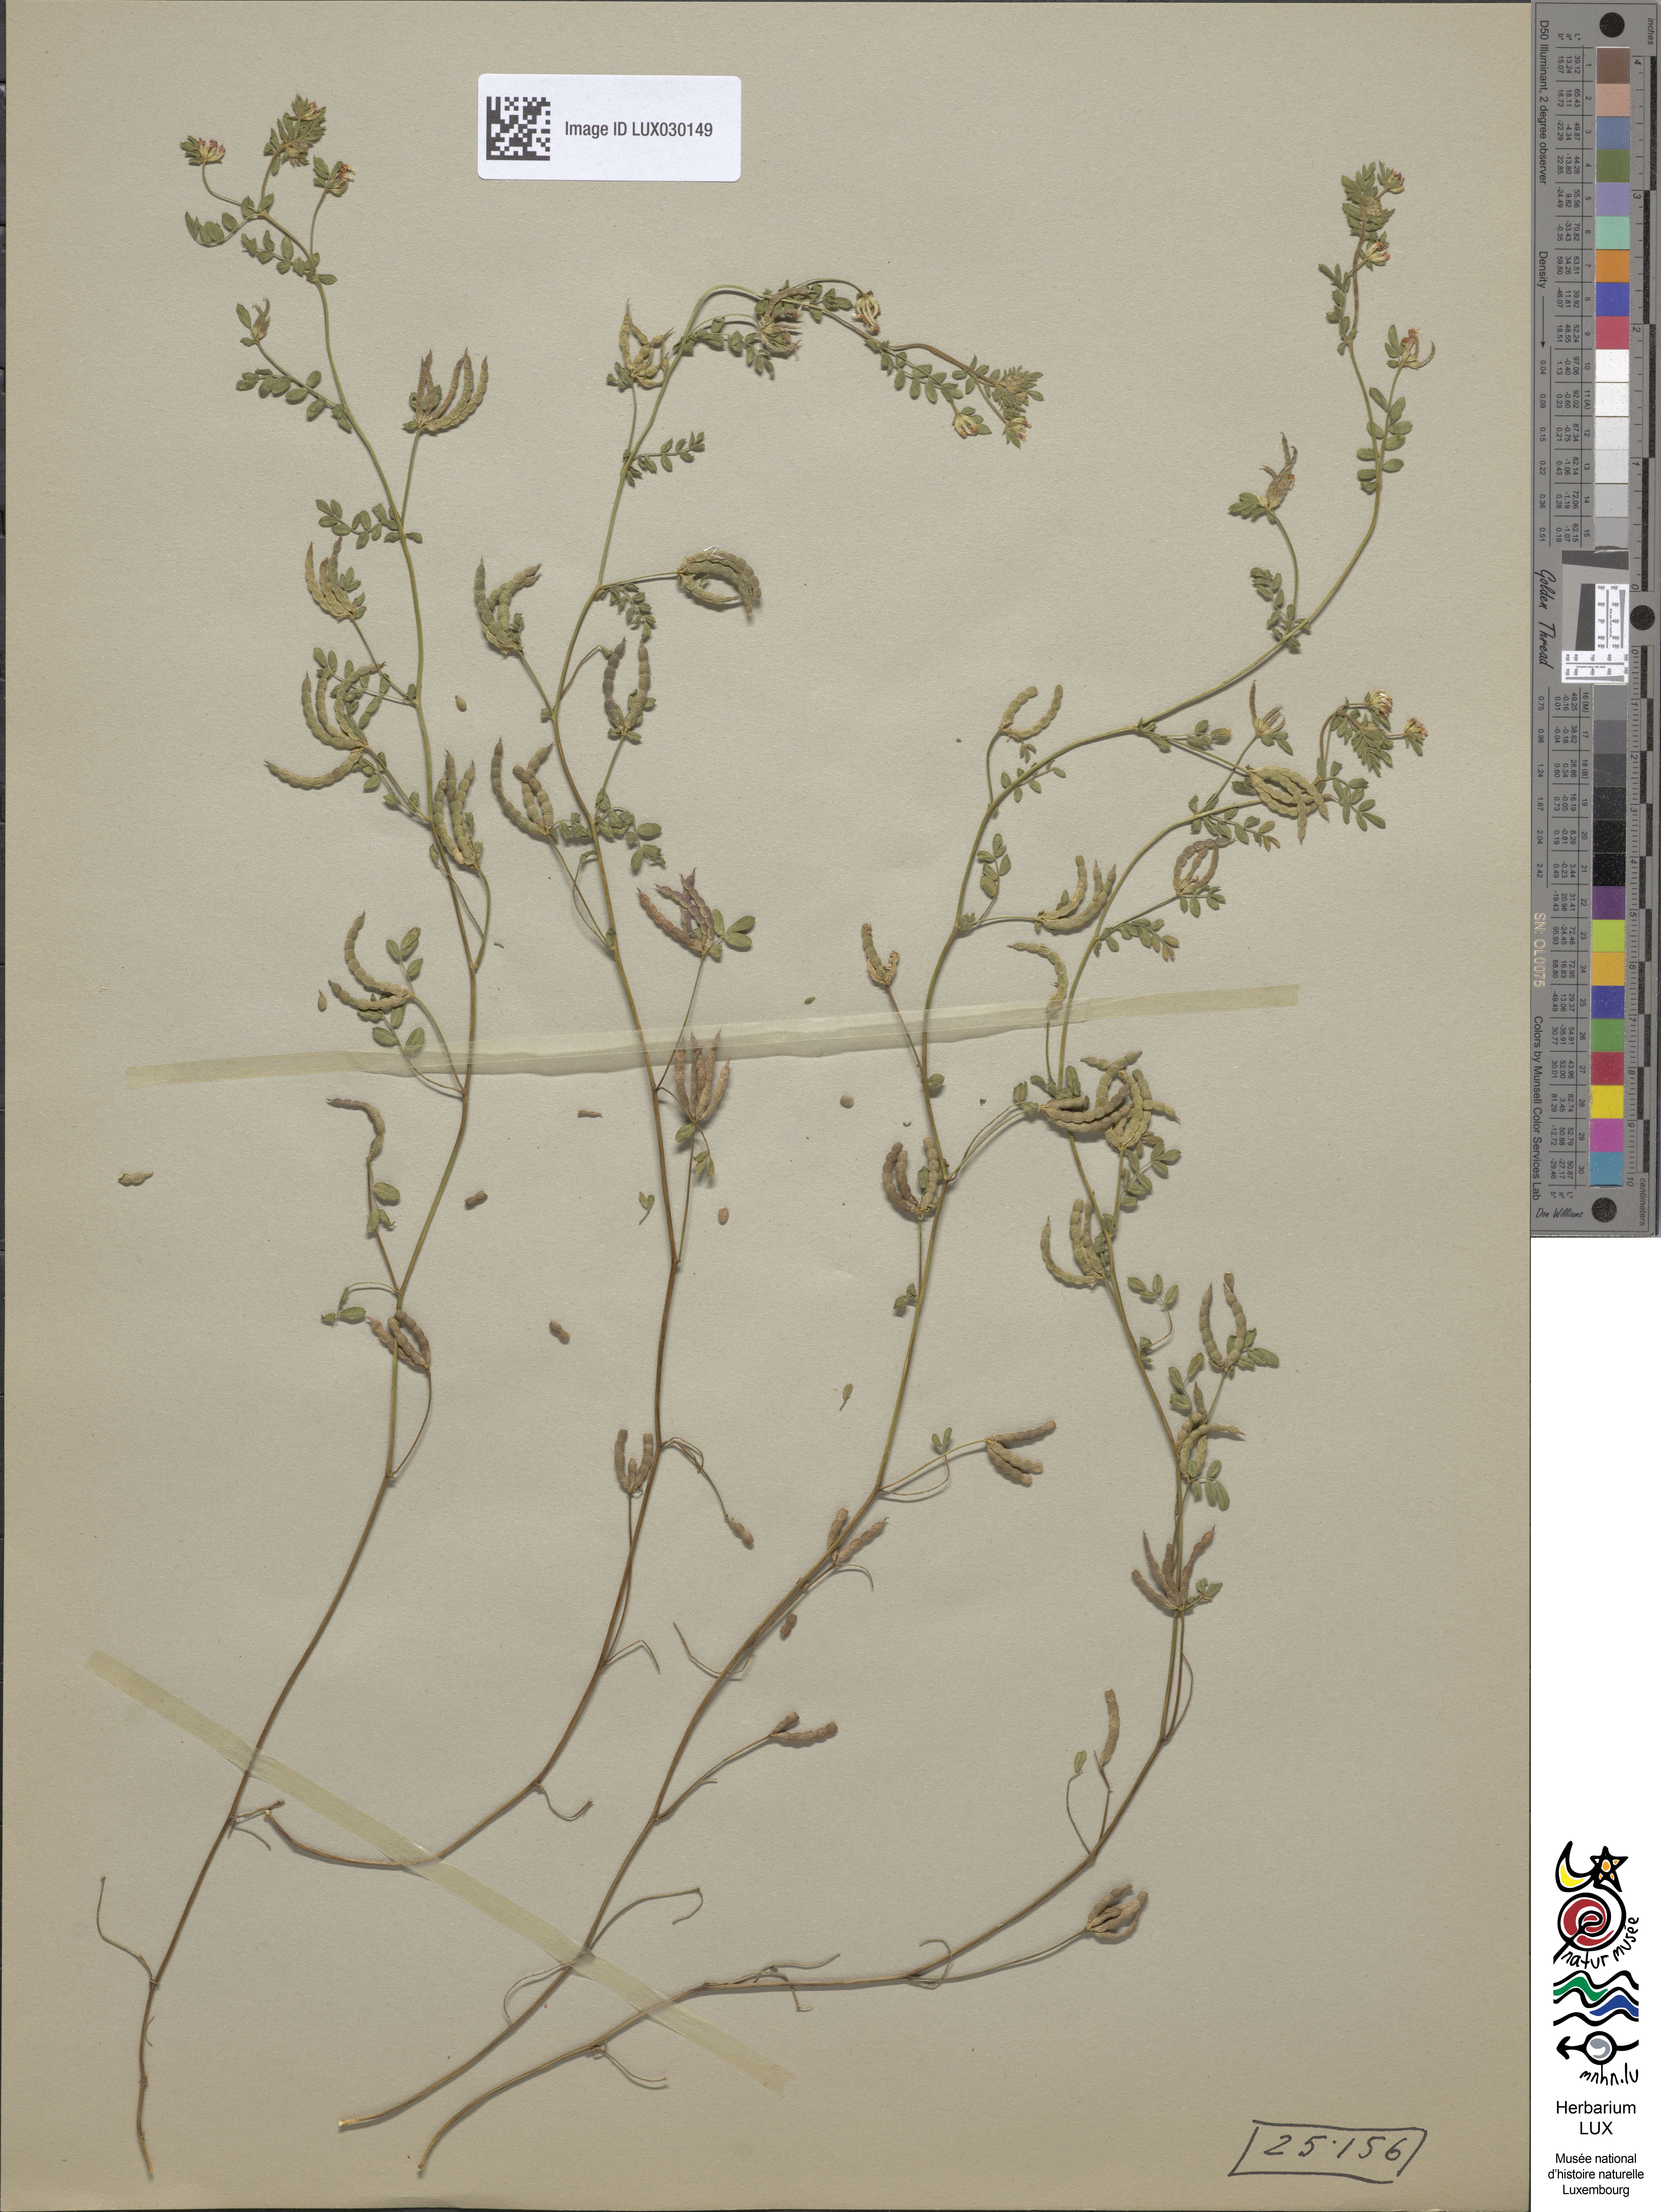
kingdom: Plantae
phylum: Tracheophyta
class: Magnoliopsida
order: Fabales
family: Fabaceae
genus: Ornithopus
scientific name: Ornithopus perpusillus
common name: Bird's-foot
